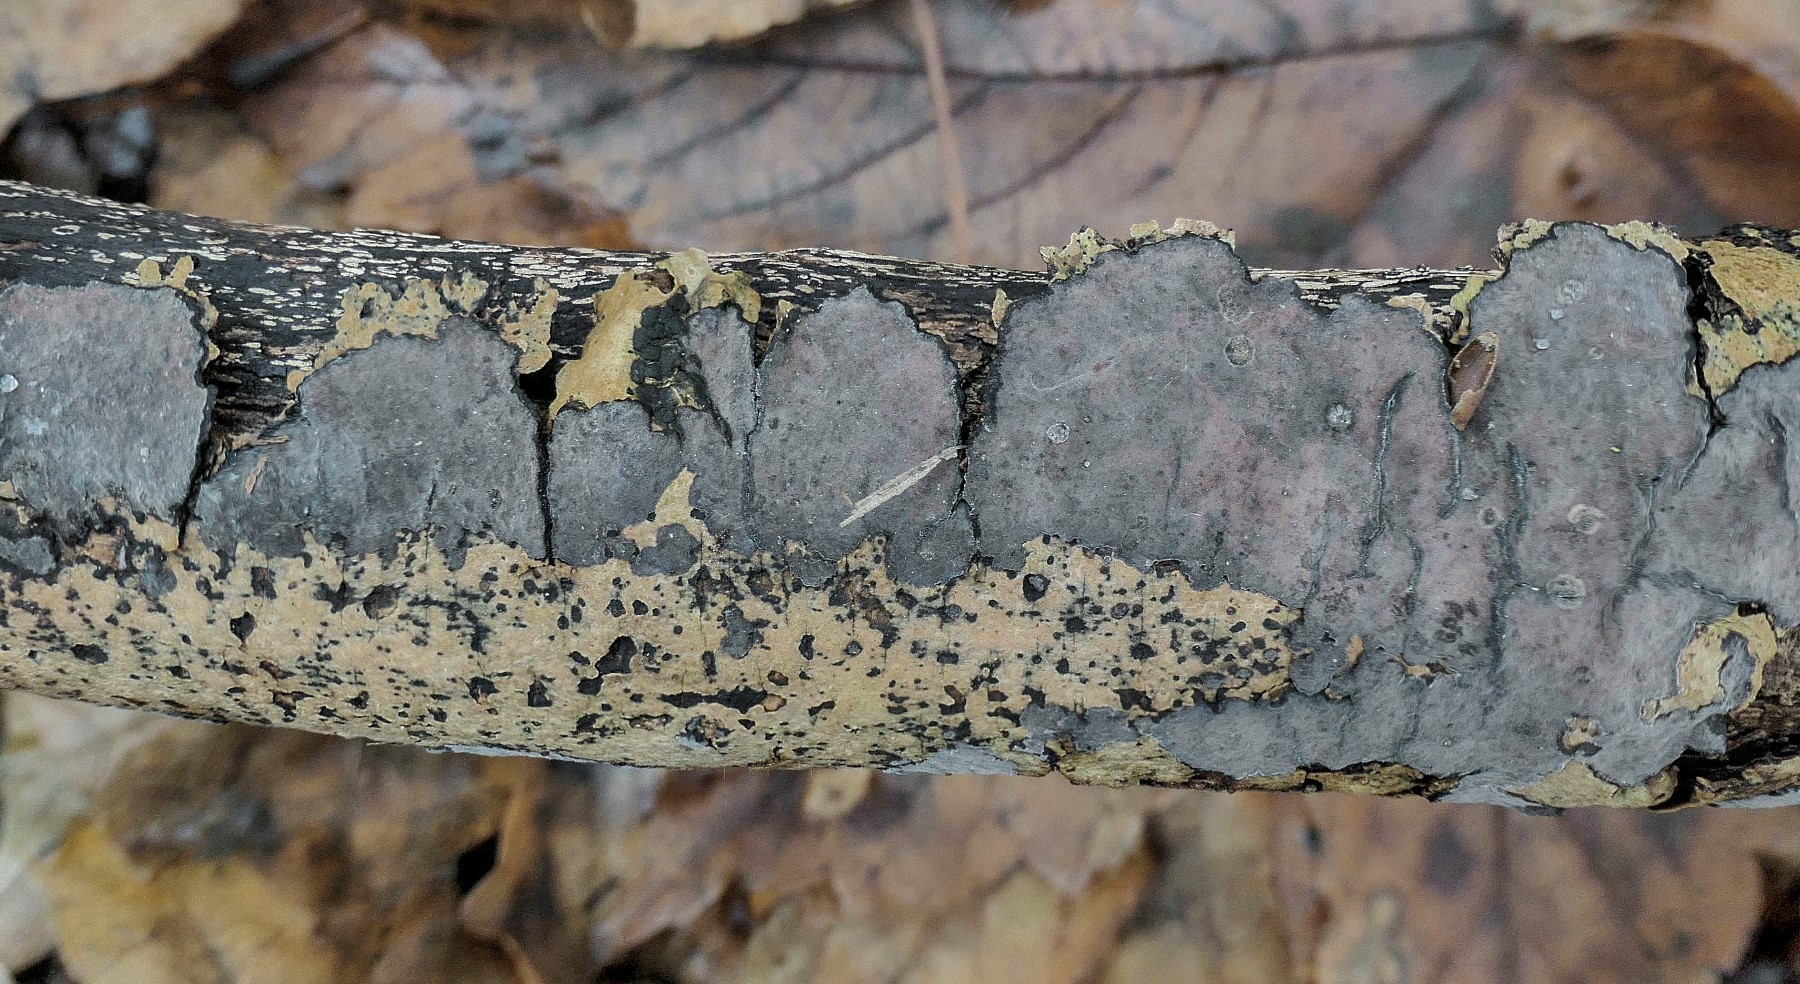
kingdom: Fungi
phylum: Basidiomycota
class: Agaricomycetes
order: Russulales
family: Peniophoraceae
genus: Peniophora
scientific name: Peniophora limitata
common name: mørkrandet voksskind
